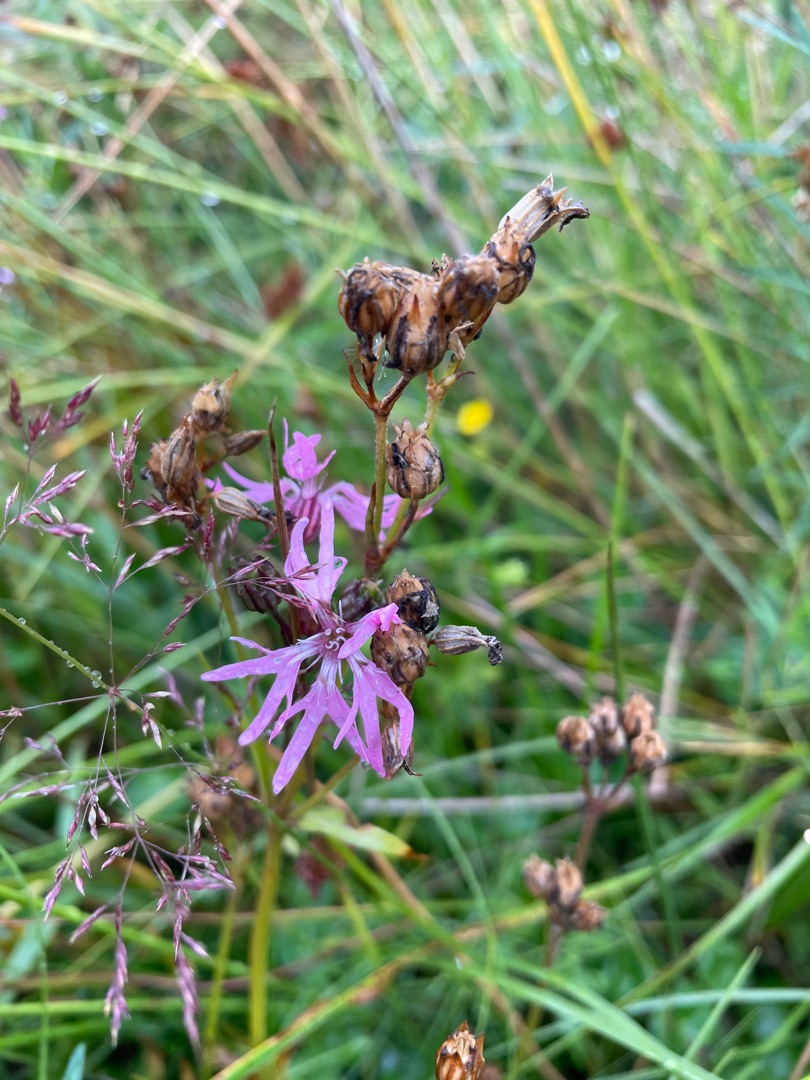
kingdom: Plantae
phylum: Tracheophyta
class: Magnoliopsida
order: Caryophyllales
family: Caryophyllaceae
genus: Silene
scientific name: Silene flos-cuculi
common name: Trævlekrone
